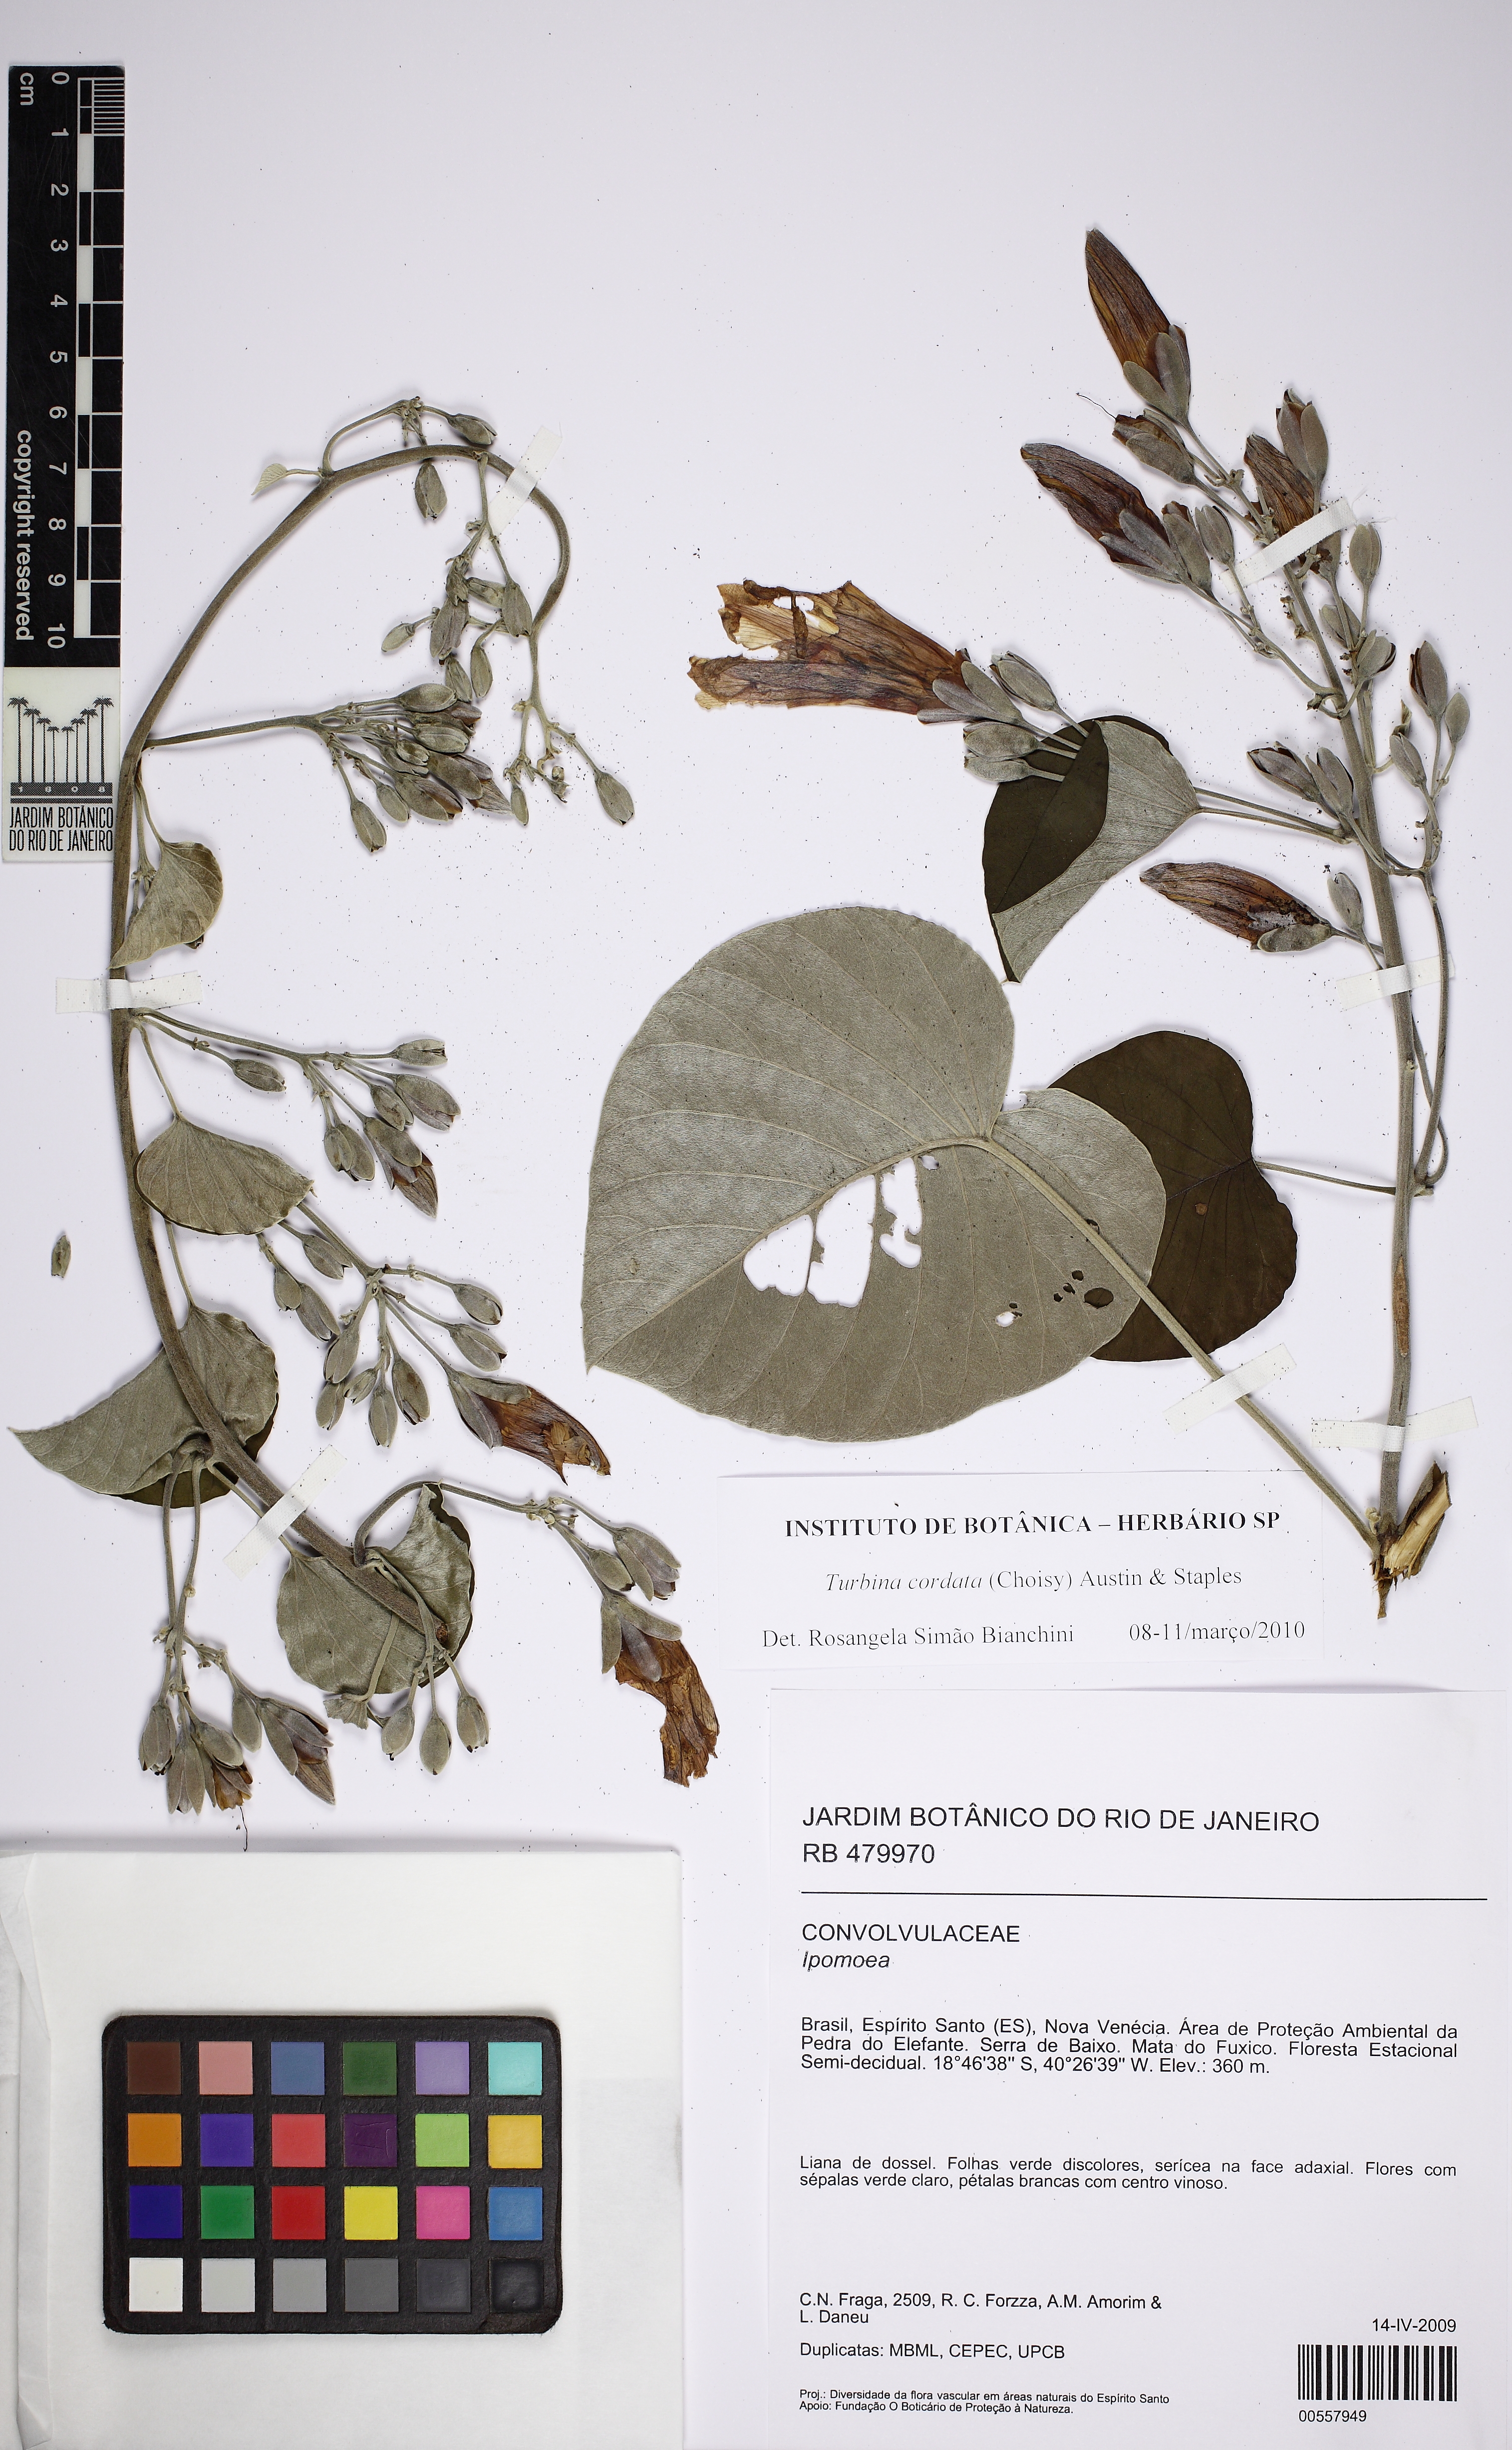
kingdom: Plantae
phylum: Tracheophyta
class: Magnoliopsida
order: Solanales
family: Convolvulaceae
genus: Ipomoea
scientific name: Ipomoea sericosepala
